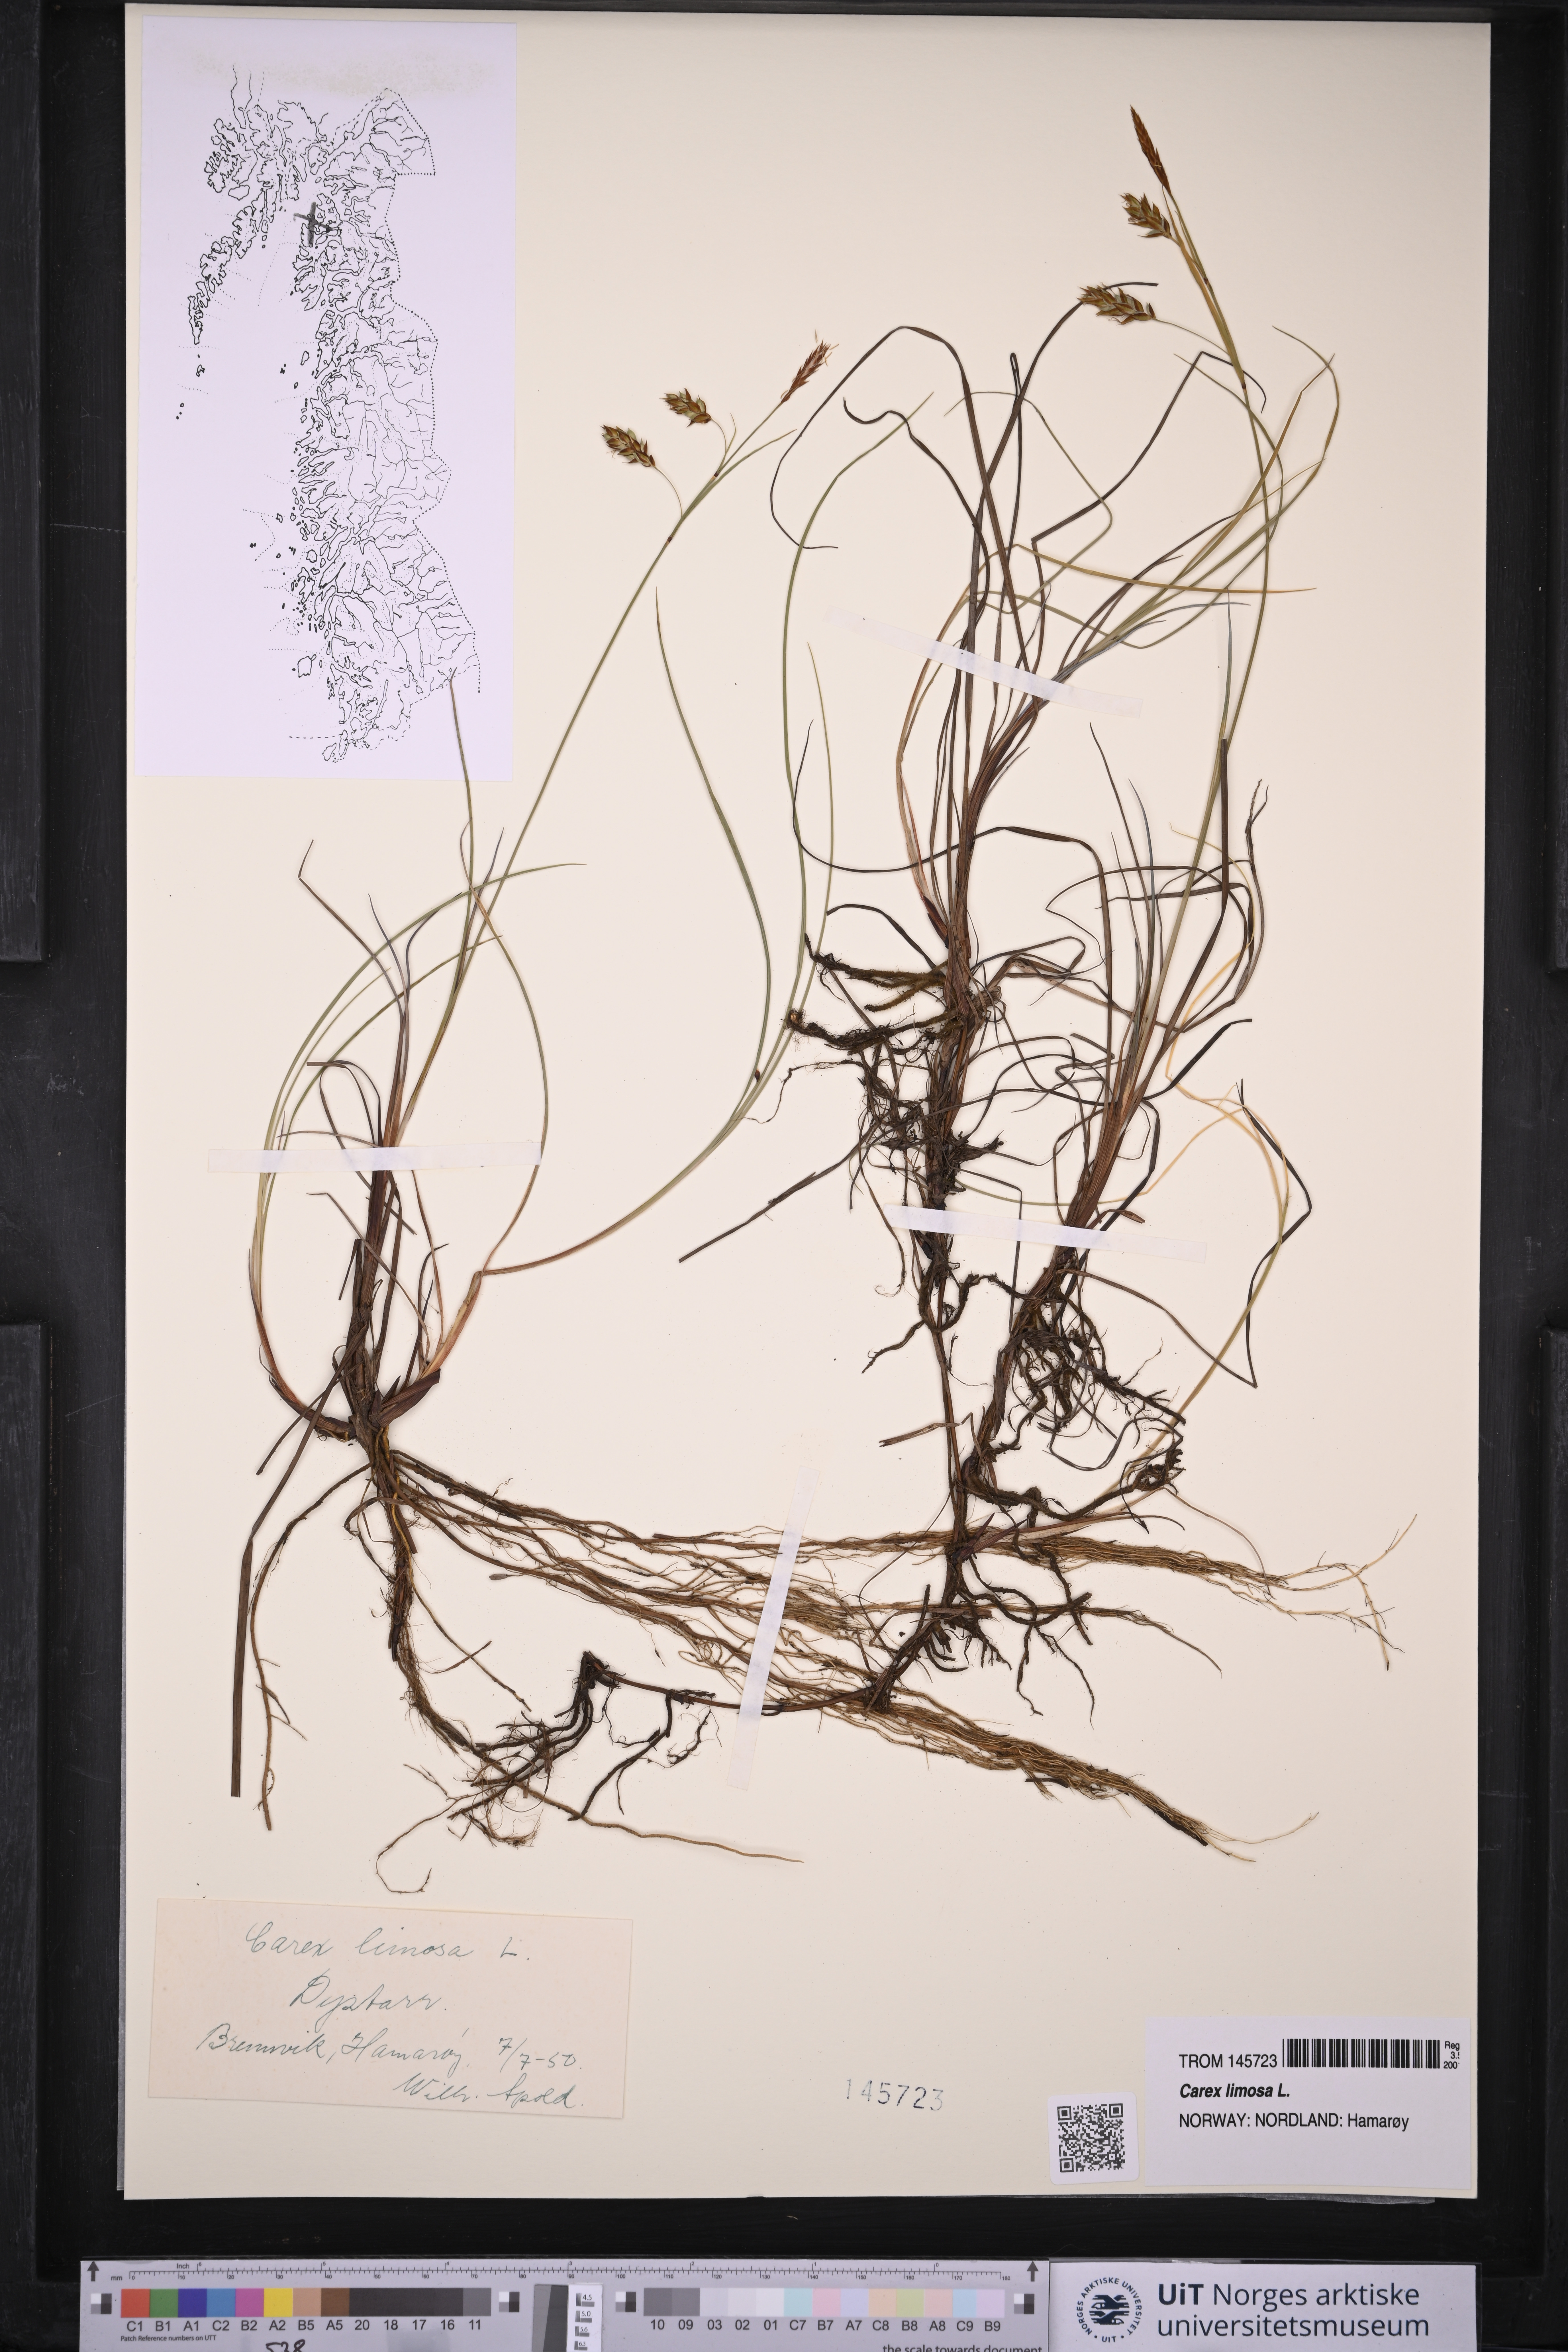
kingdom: Plantae
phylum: Tracheophyta
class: Liliopsida
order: Poales
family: Cyperaceae
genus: Carex
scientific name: Carex limosa
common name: Bog sedge
